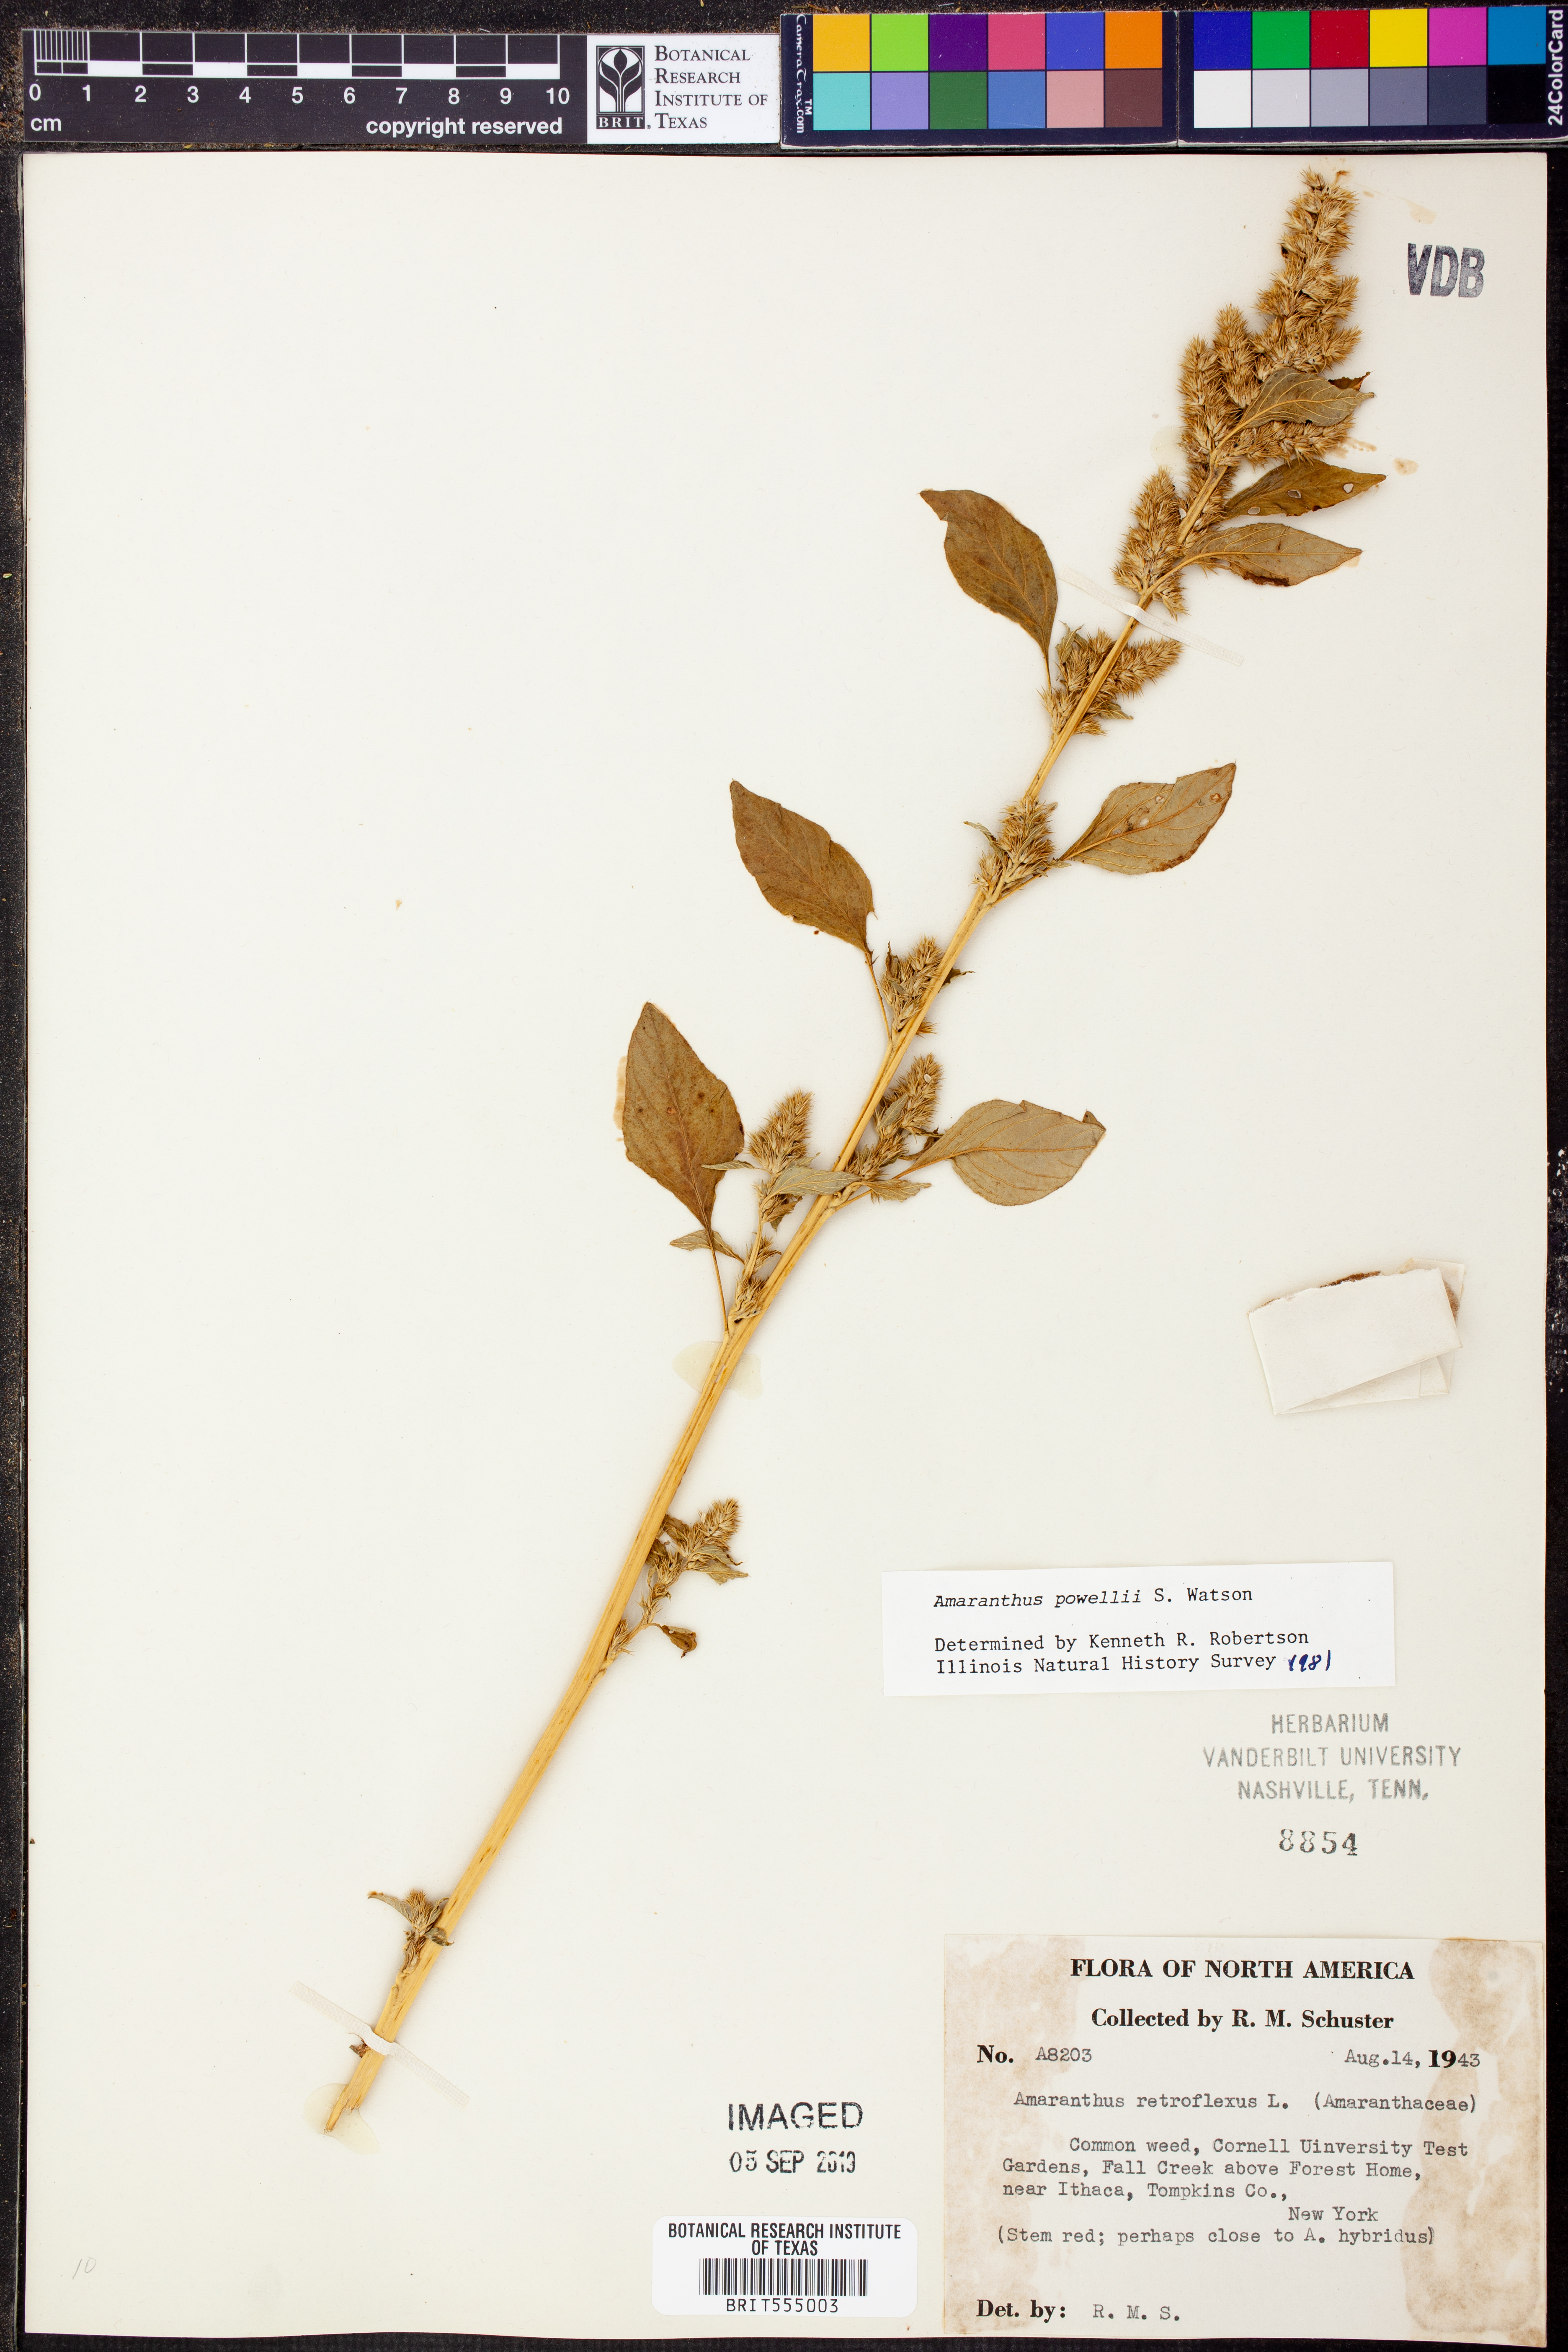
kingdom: Plantae
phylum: Tracheophyta
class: Magnoliopsida
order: Caryophyllales
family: Amaranthaceae
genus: Amaranthus
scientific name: Amaranthus powellii
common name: Powell's amaranth
